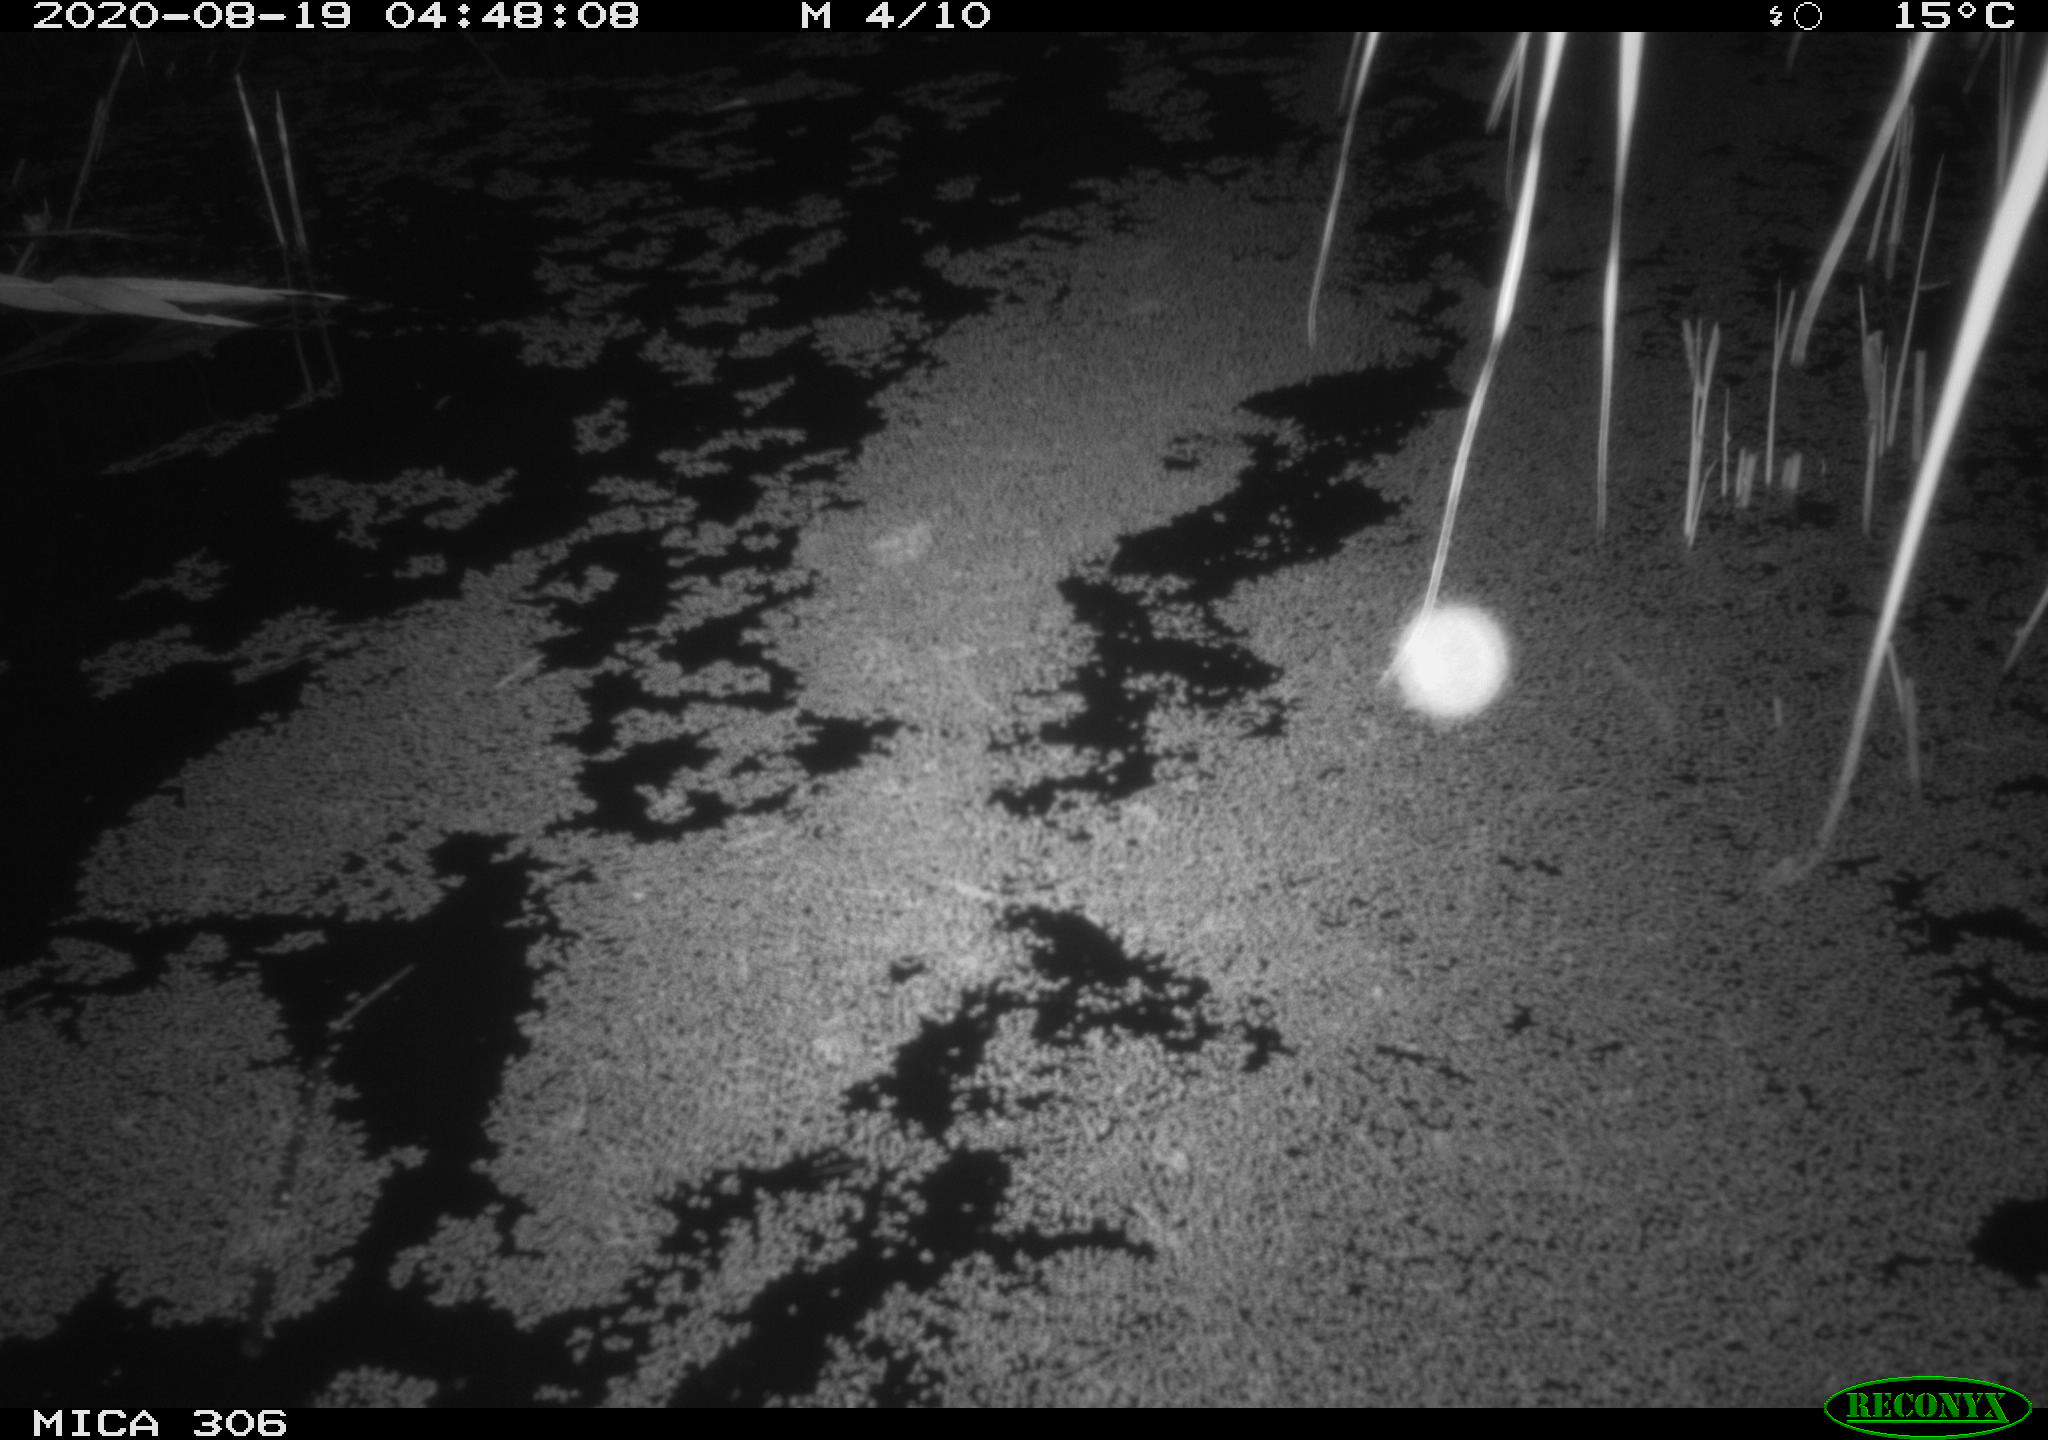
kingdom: Animalia
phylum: Chordata
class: Mammalia
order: Rodentia
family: Cricetidae
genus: Ondatra
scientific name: Ondatra zibethicus
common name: Muskrat
